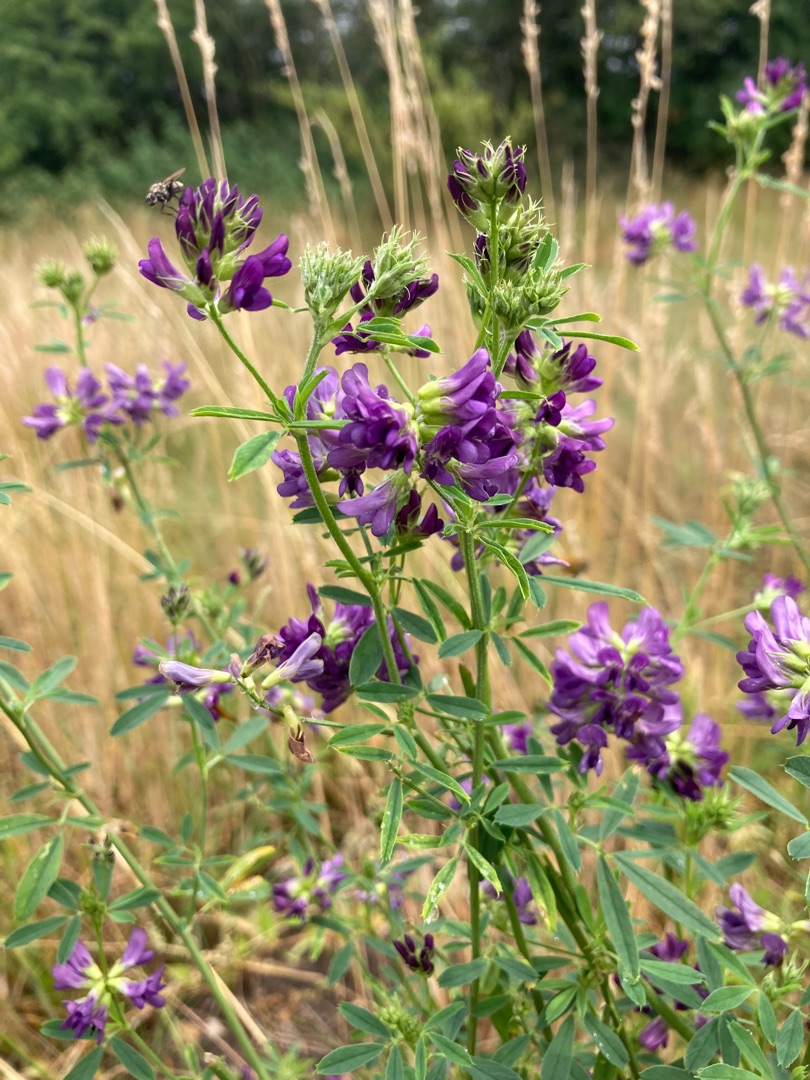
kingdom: Plantae
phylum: Tracheophyta
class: Magnoliopsida
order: Fabales
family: Fabaceae
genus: Medicago
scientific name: Medicago sativa
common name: Lucerne
